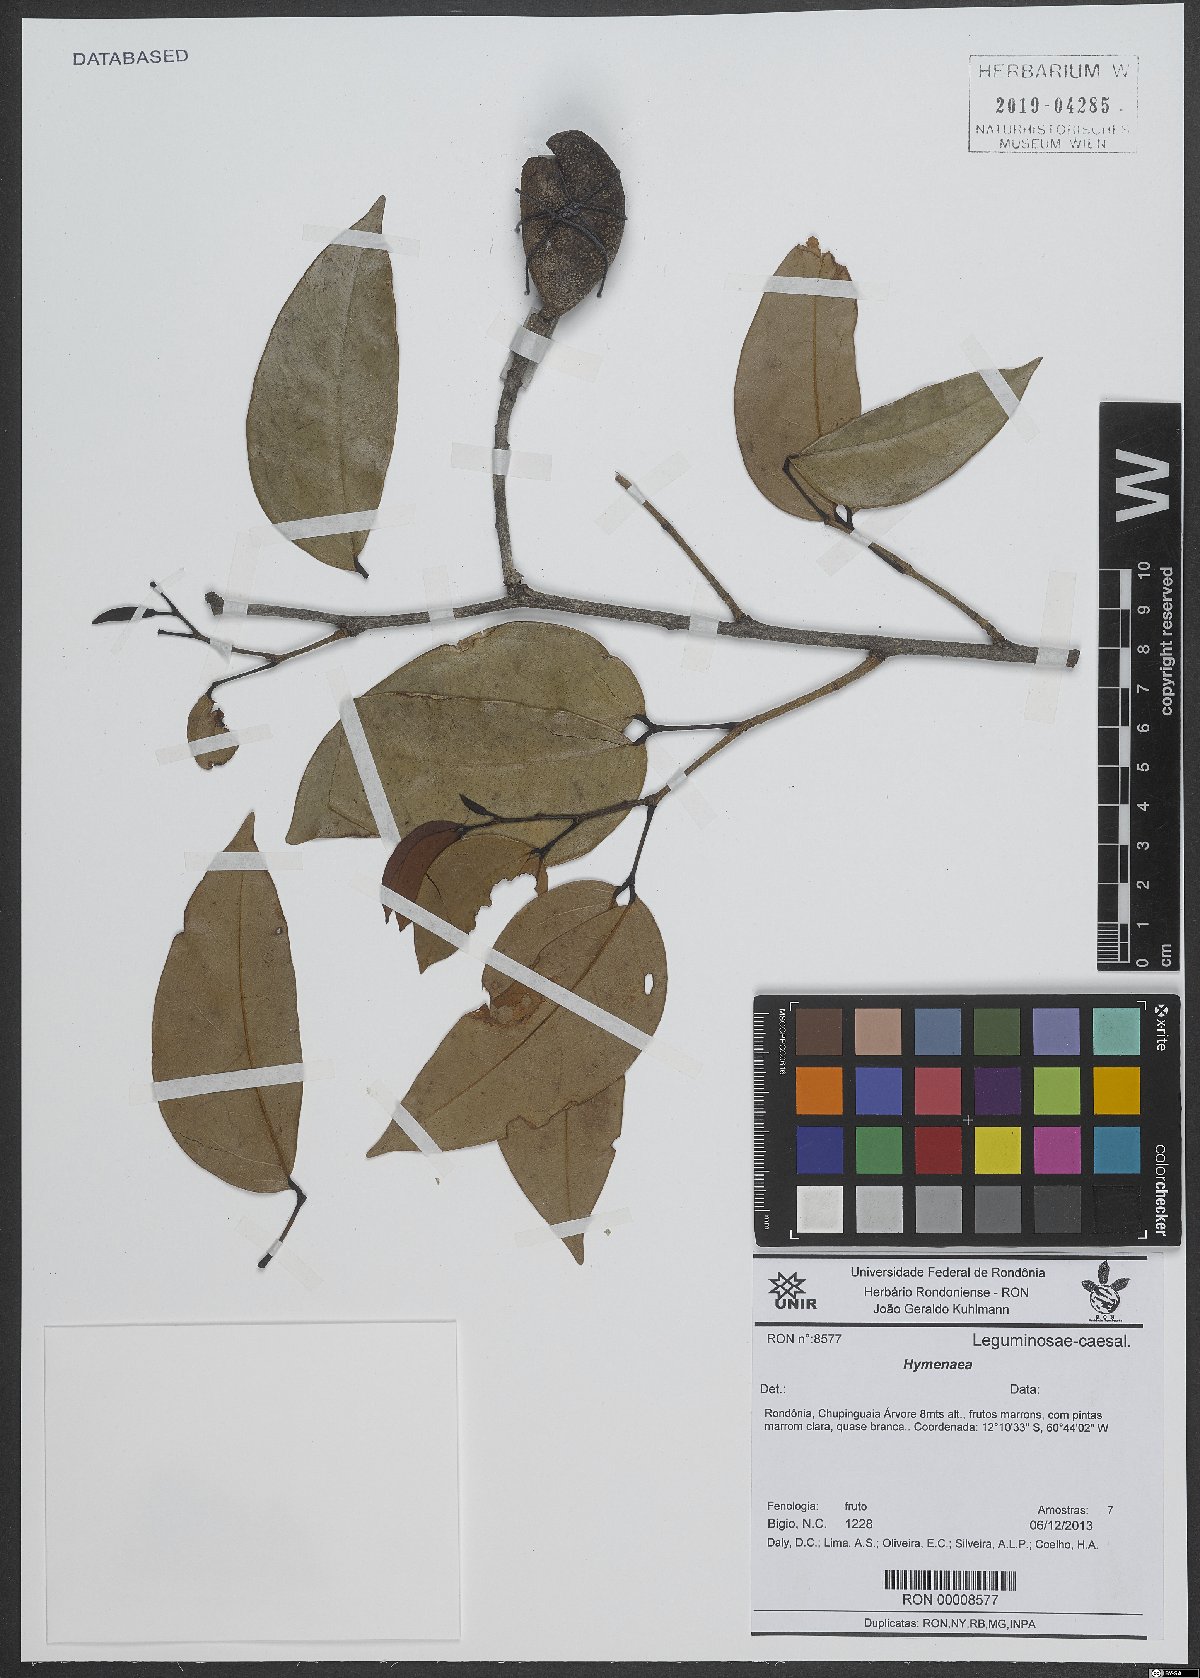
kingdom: Plantae
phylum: Tracheophyta
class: Magnoliopsida
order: Fabales
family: Fabaceae
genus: Hymenaea
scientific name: Hymenaea
